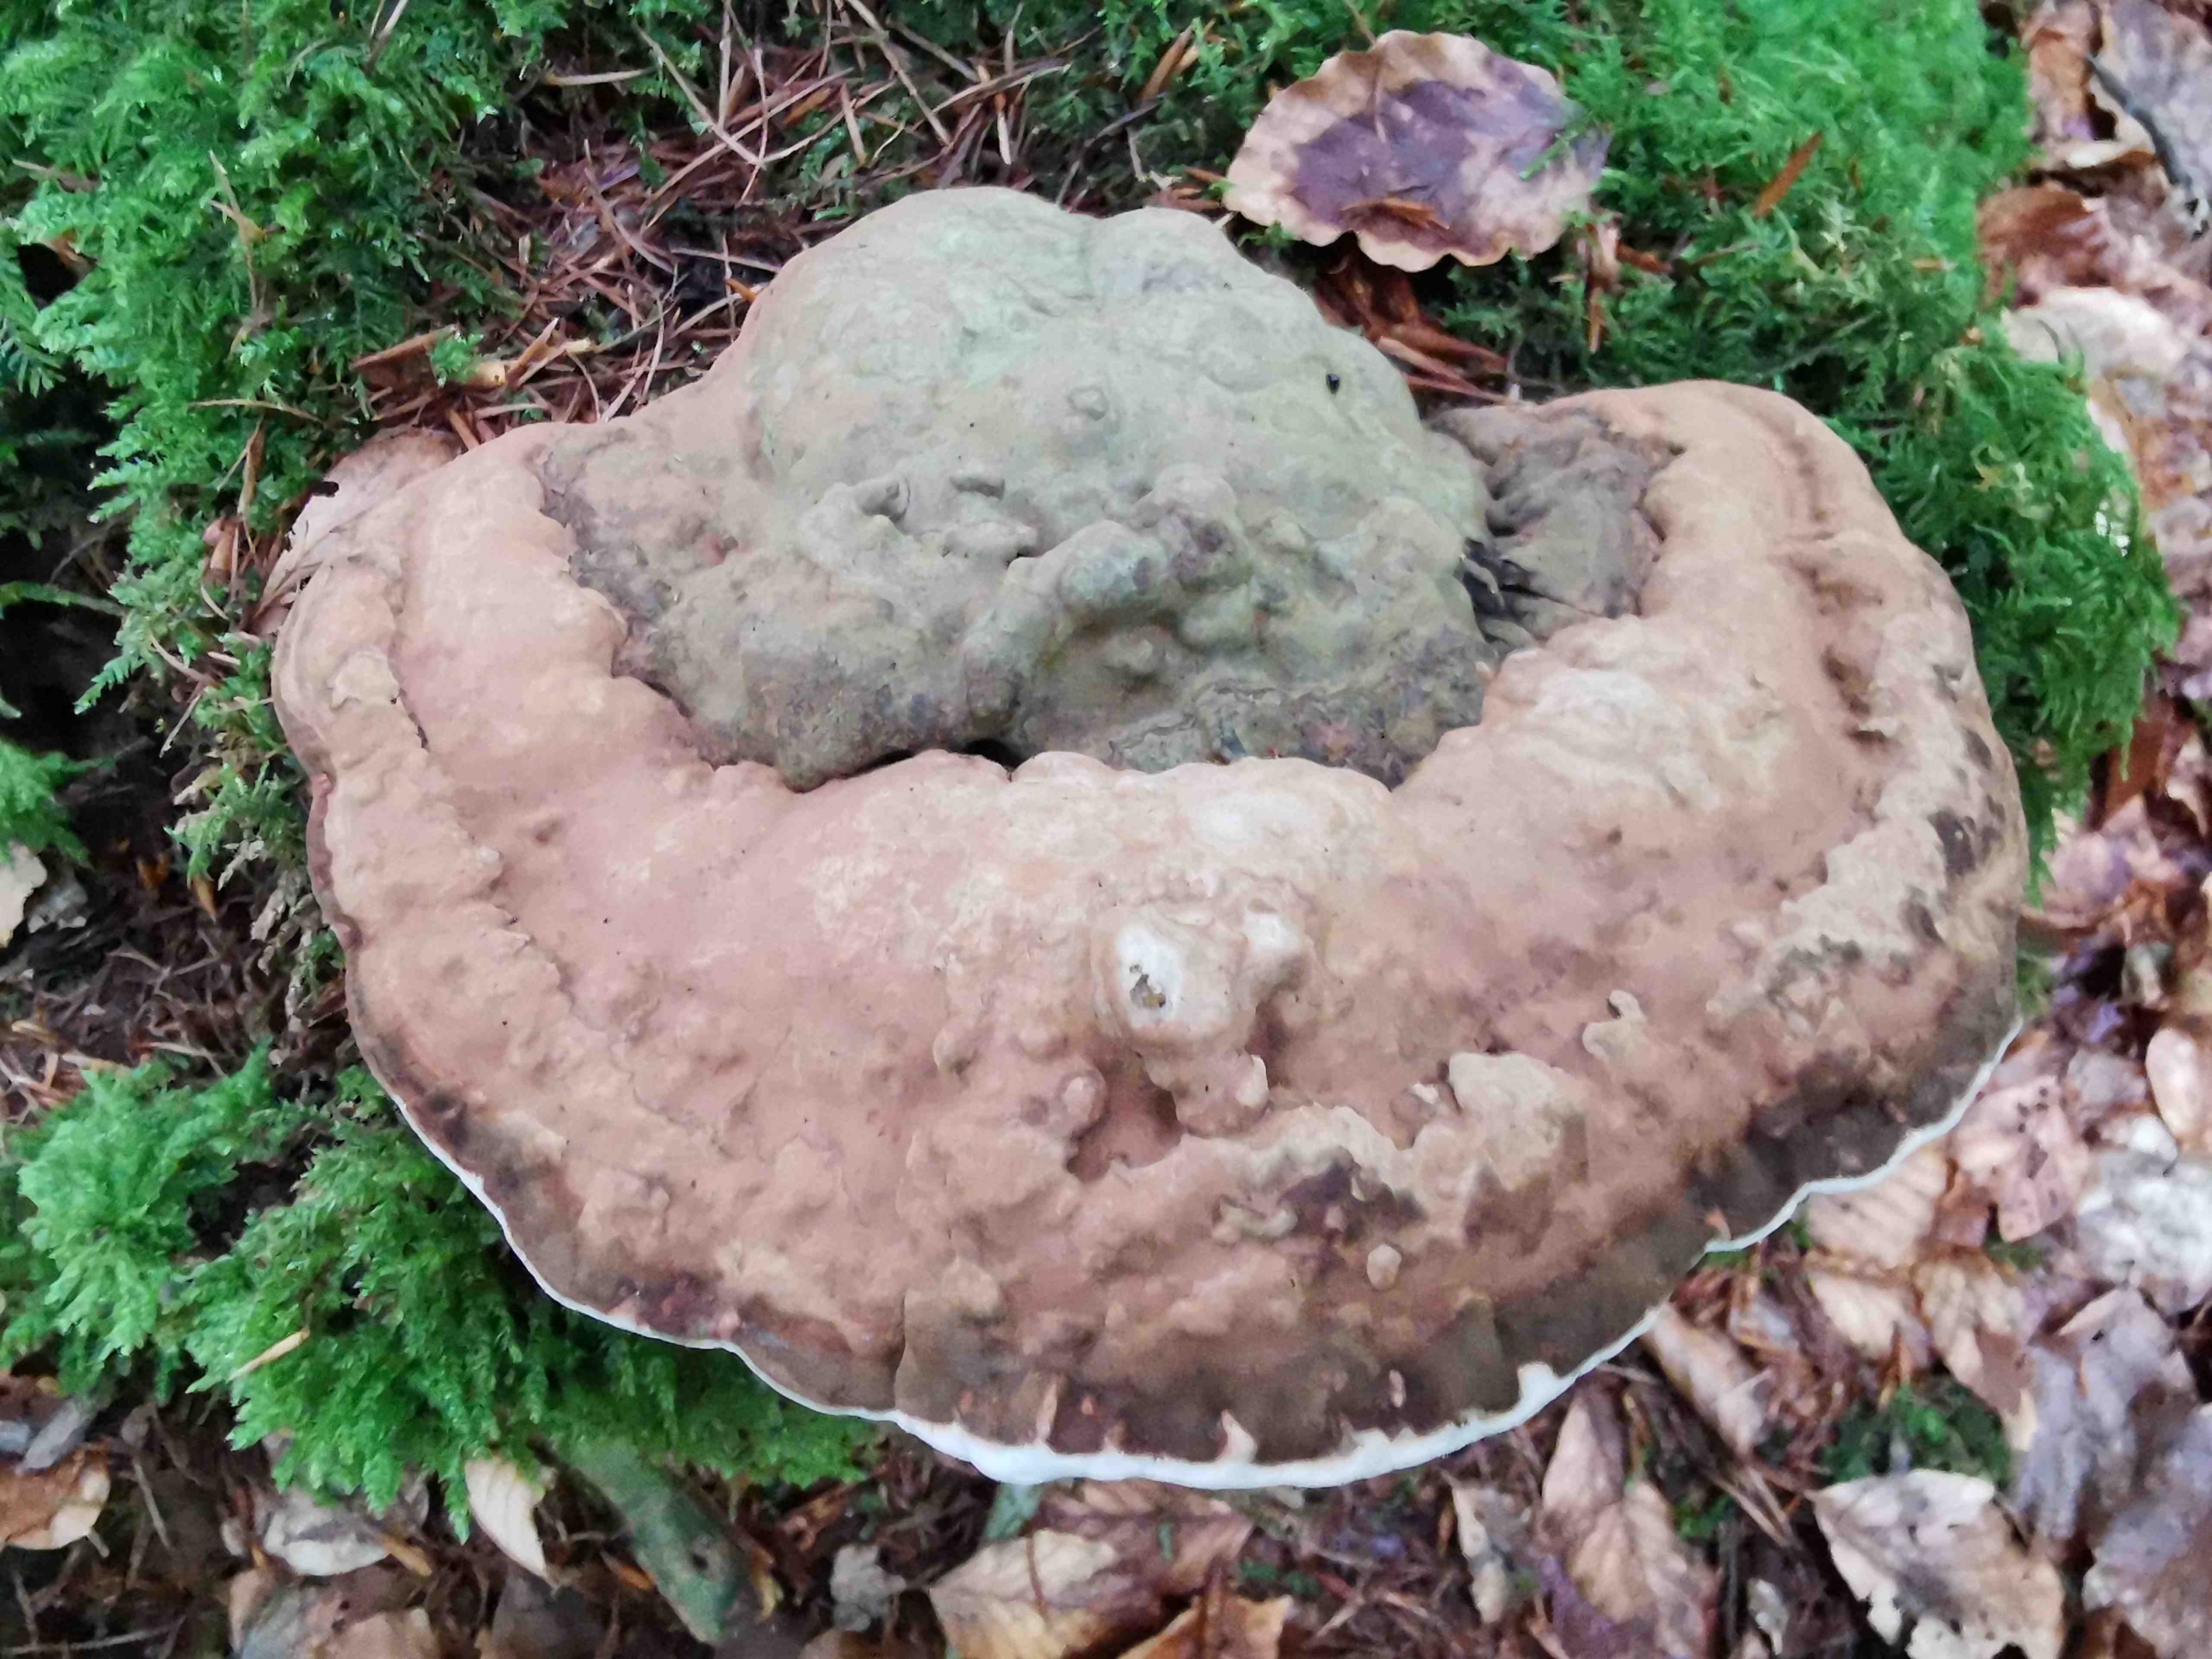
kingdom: Fungi
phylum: Basidiomycota
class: Agaricomycetes
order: Polyporales
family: Polyporaceae
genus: Ganoderma
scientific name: Ganoderma applanatum
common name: flad lakporesvamp
